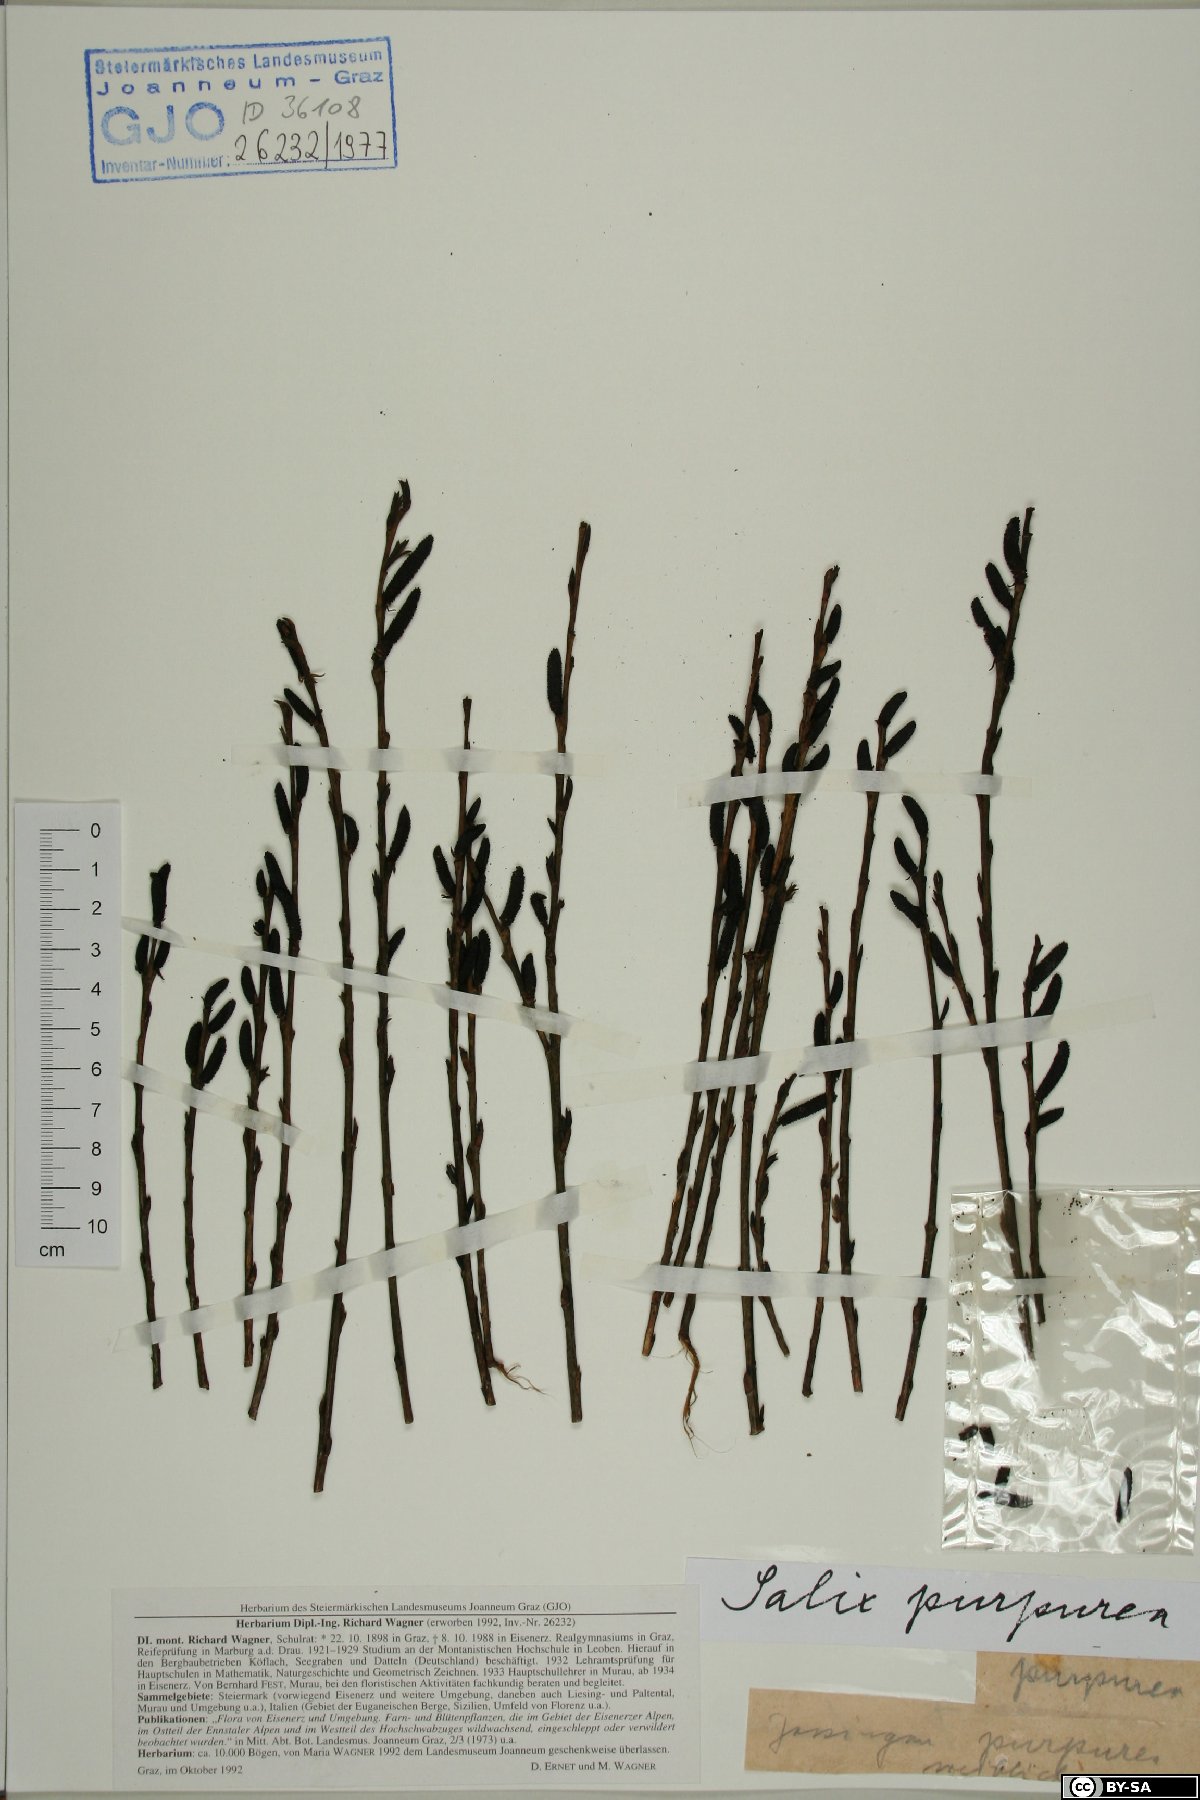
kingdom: Plantae
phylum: Tracheophyta
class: Magnoliopsida
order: Malpighiales
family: Salicaceae
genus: Salix
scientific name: Salix purpurea
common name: Purple willow
